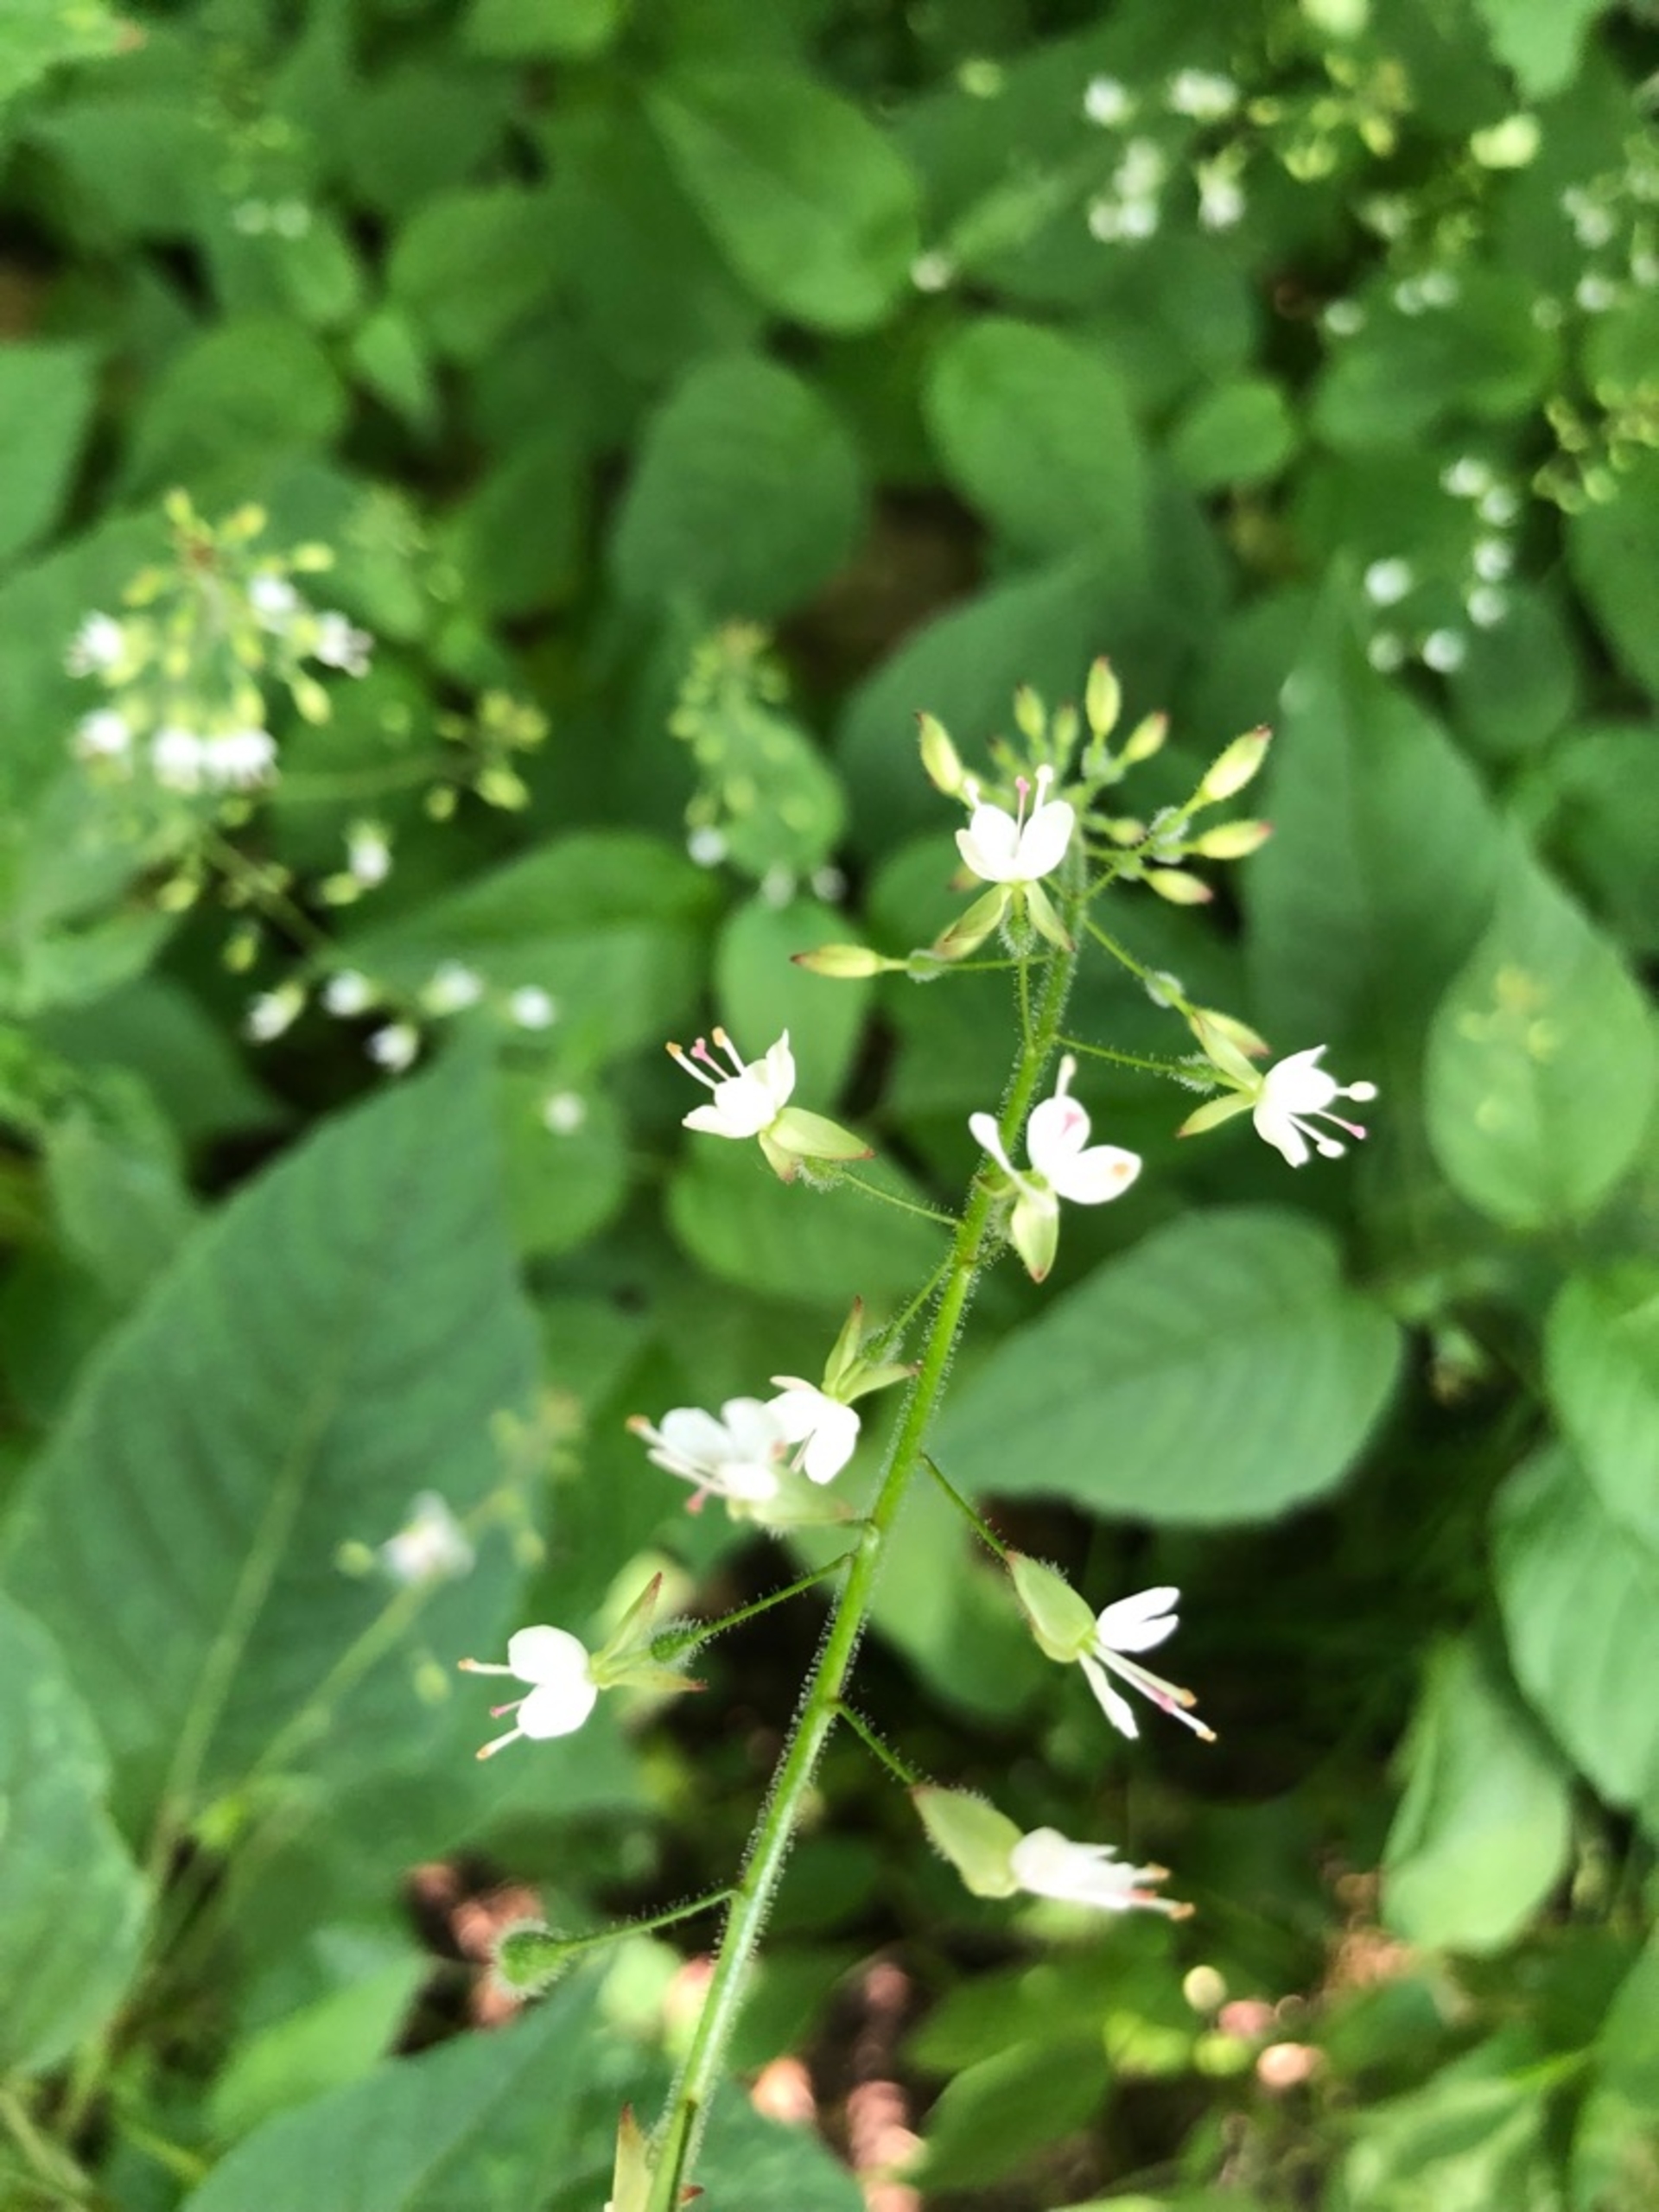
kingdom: Plantae
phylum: Tracheophyta
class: Magnoliopsida
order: Myrtales
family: Onagraceae
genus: Circaea
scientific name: Circaea lutetiana
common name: Dunet steffensurt
